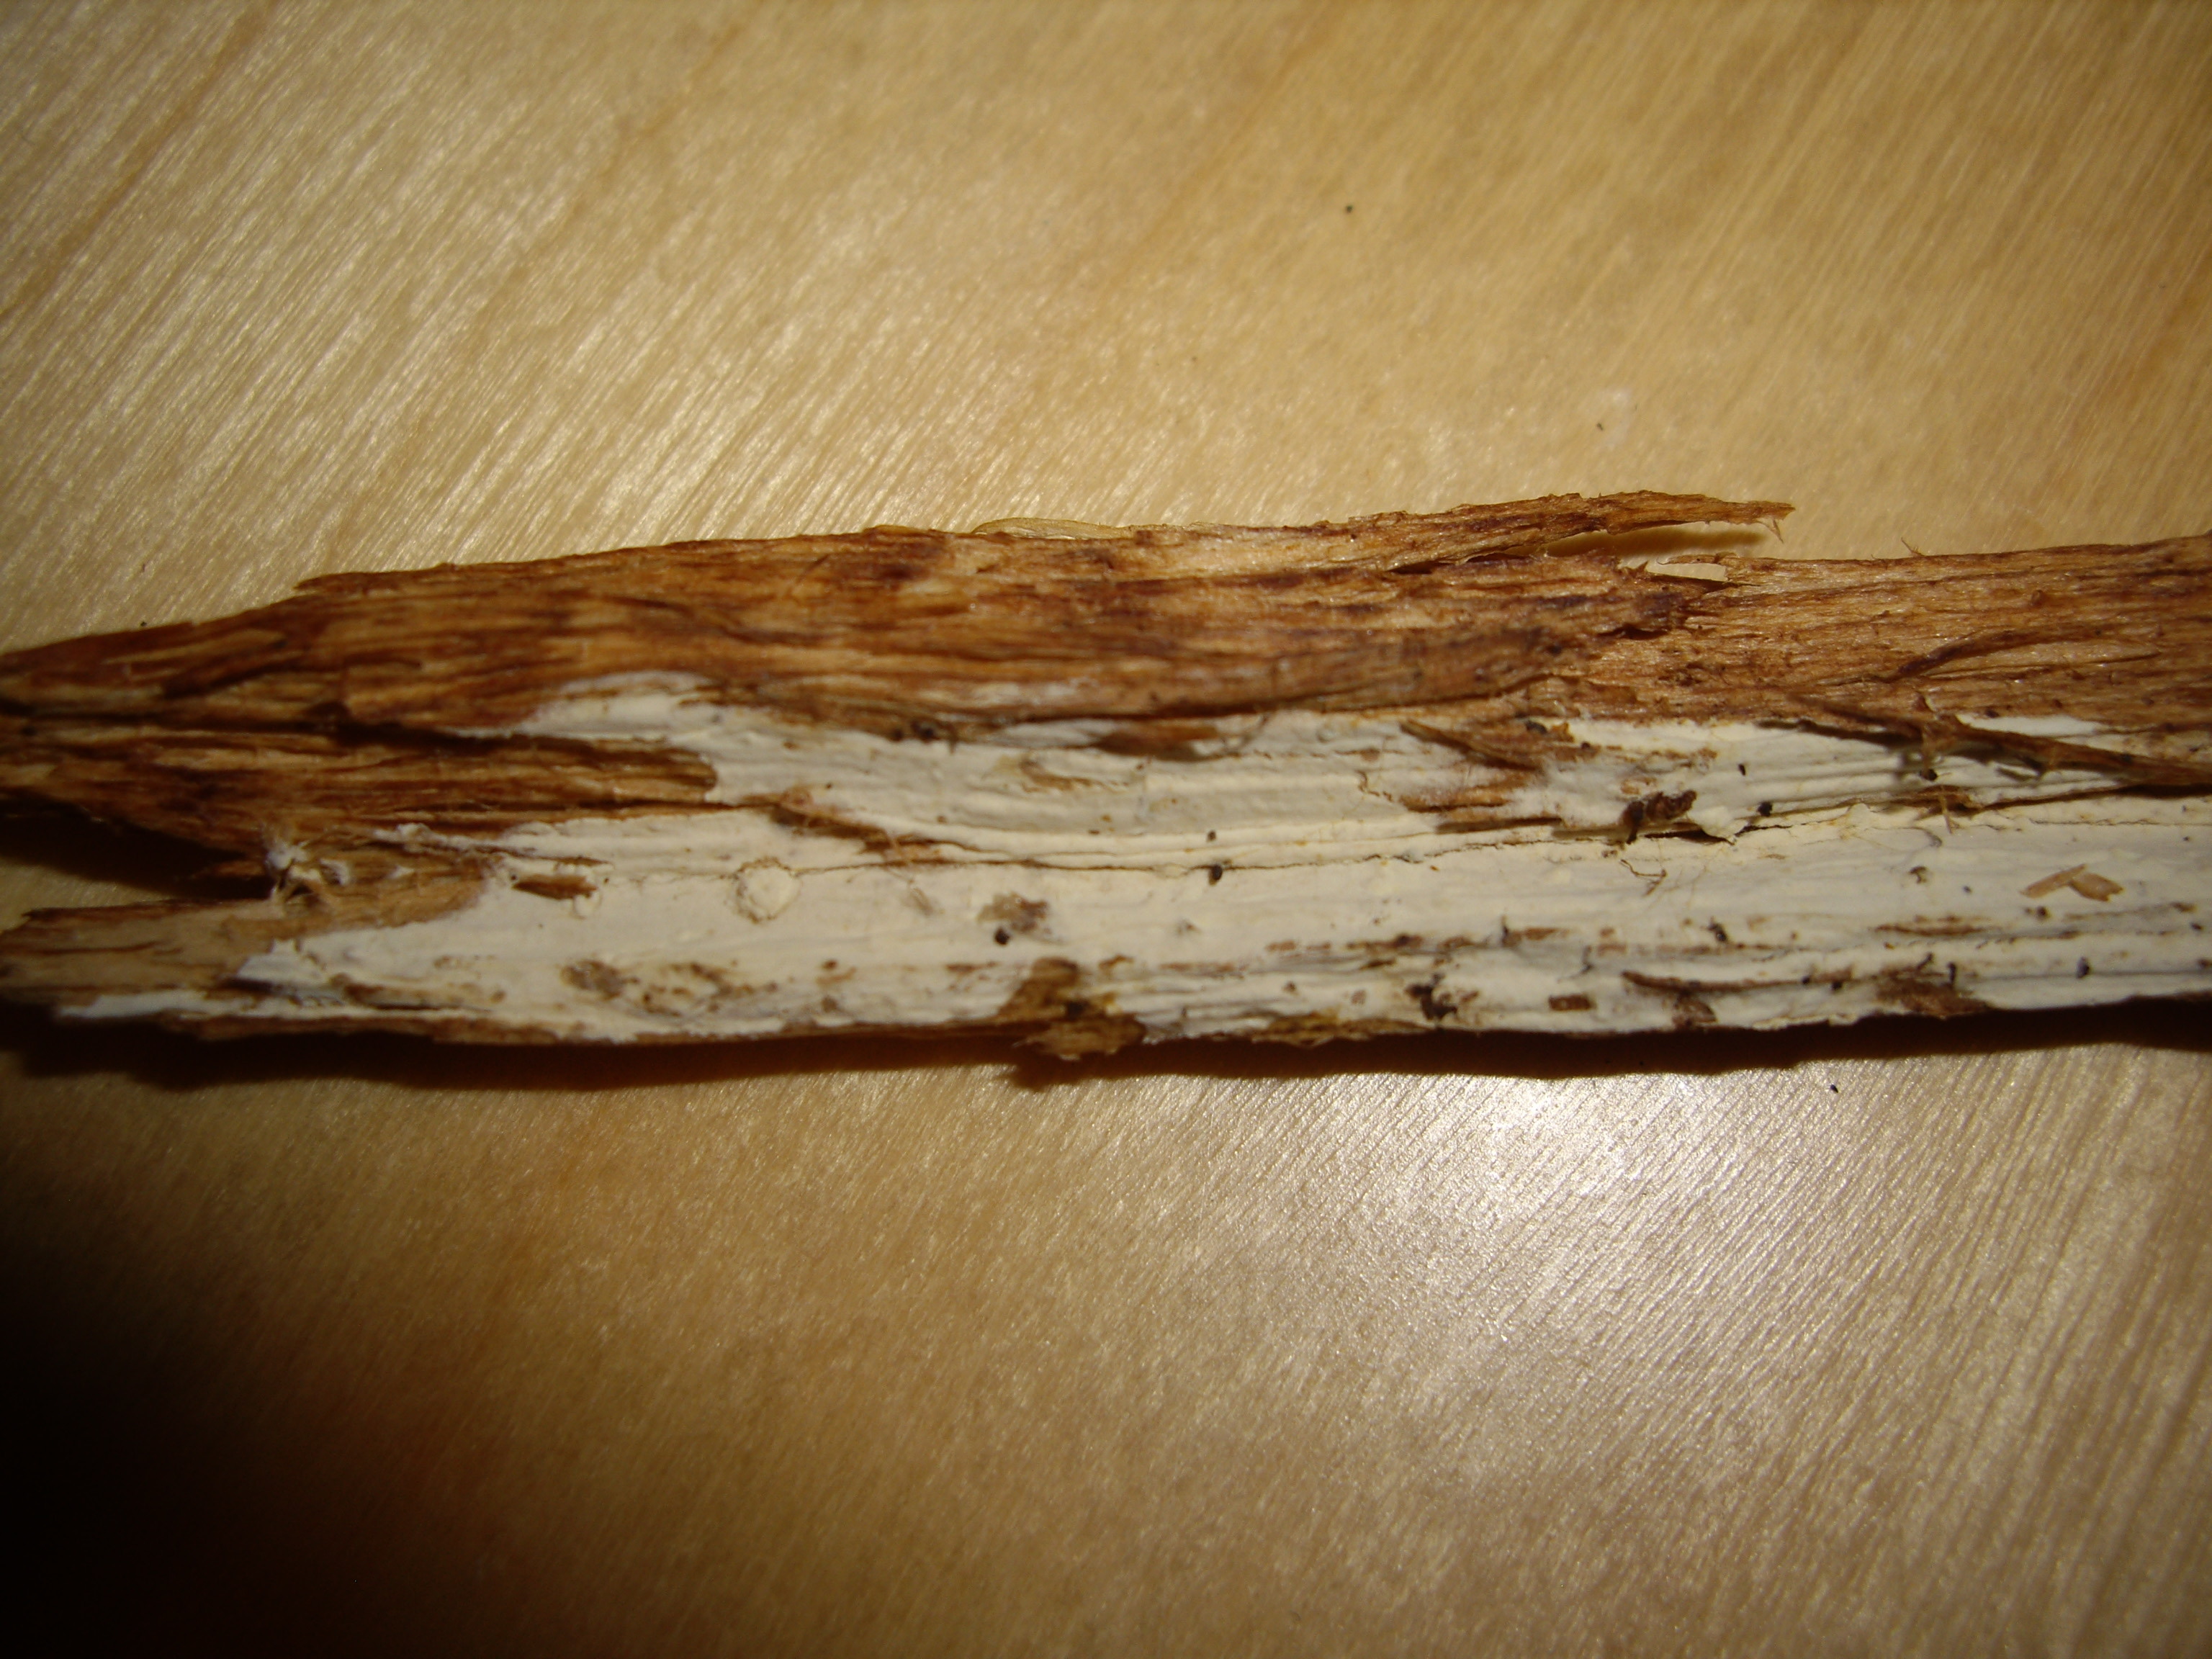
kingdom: Fungi
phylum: Basidiomycota
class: Agaricomycetes
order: Cantharellales
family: Hydnaceae
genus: Sistotrema
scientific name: Sistotrema sernanderi
